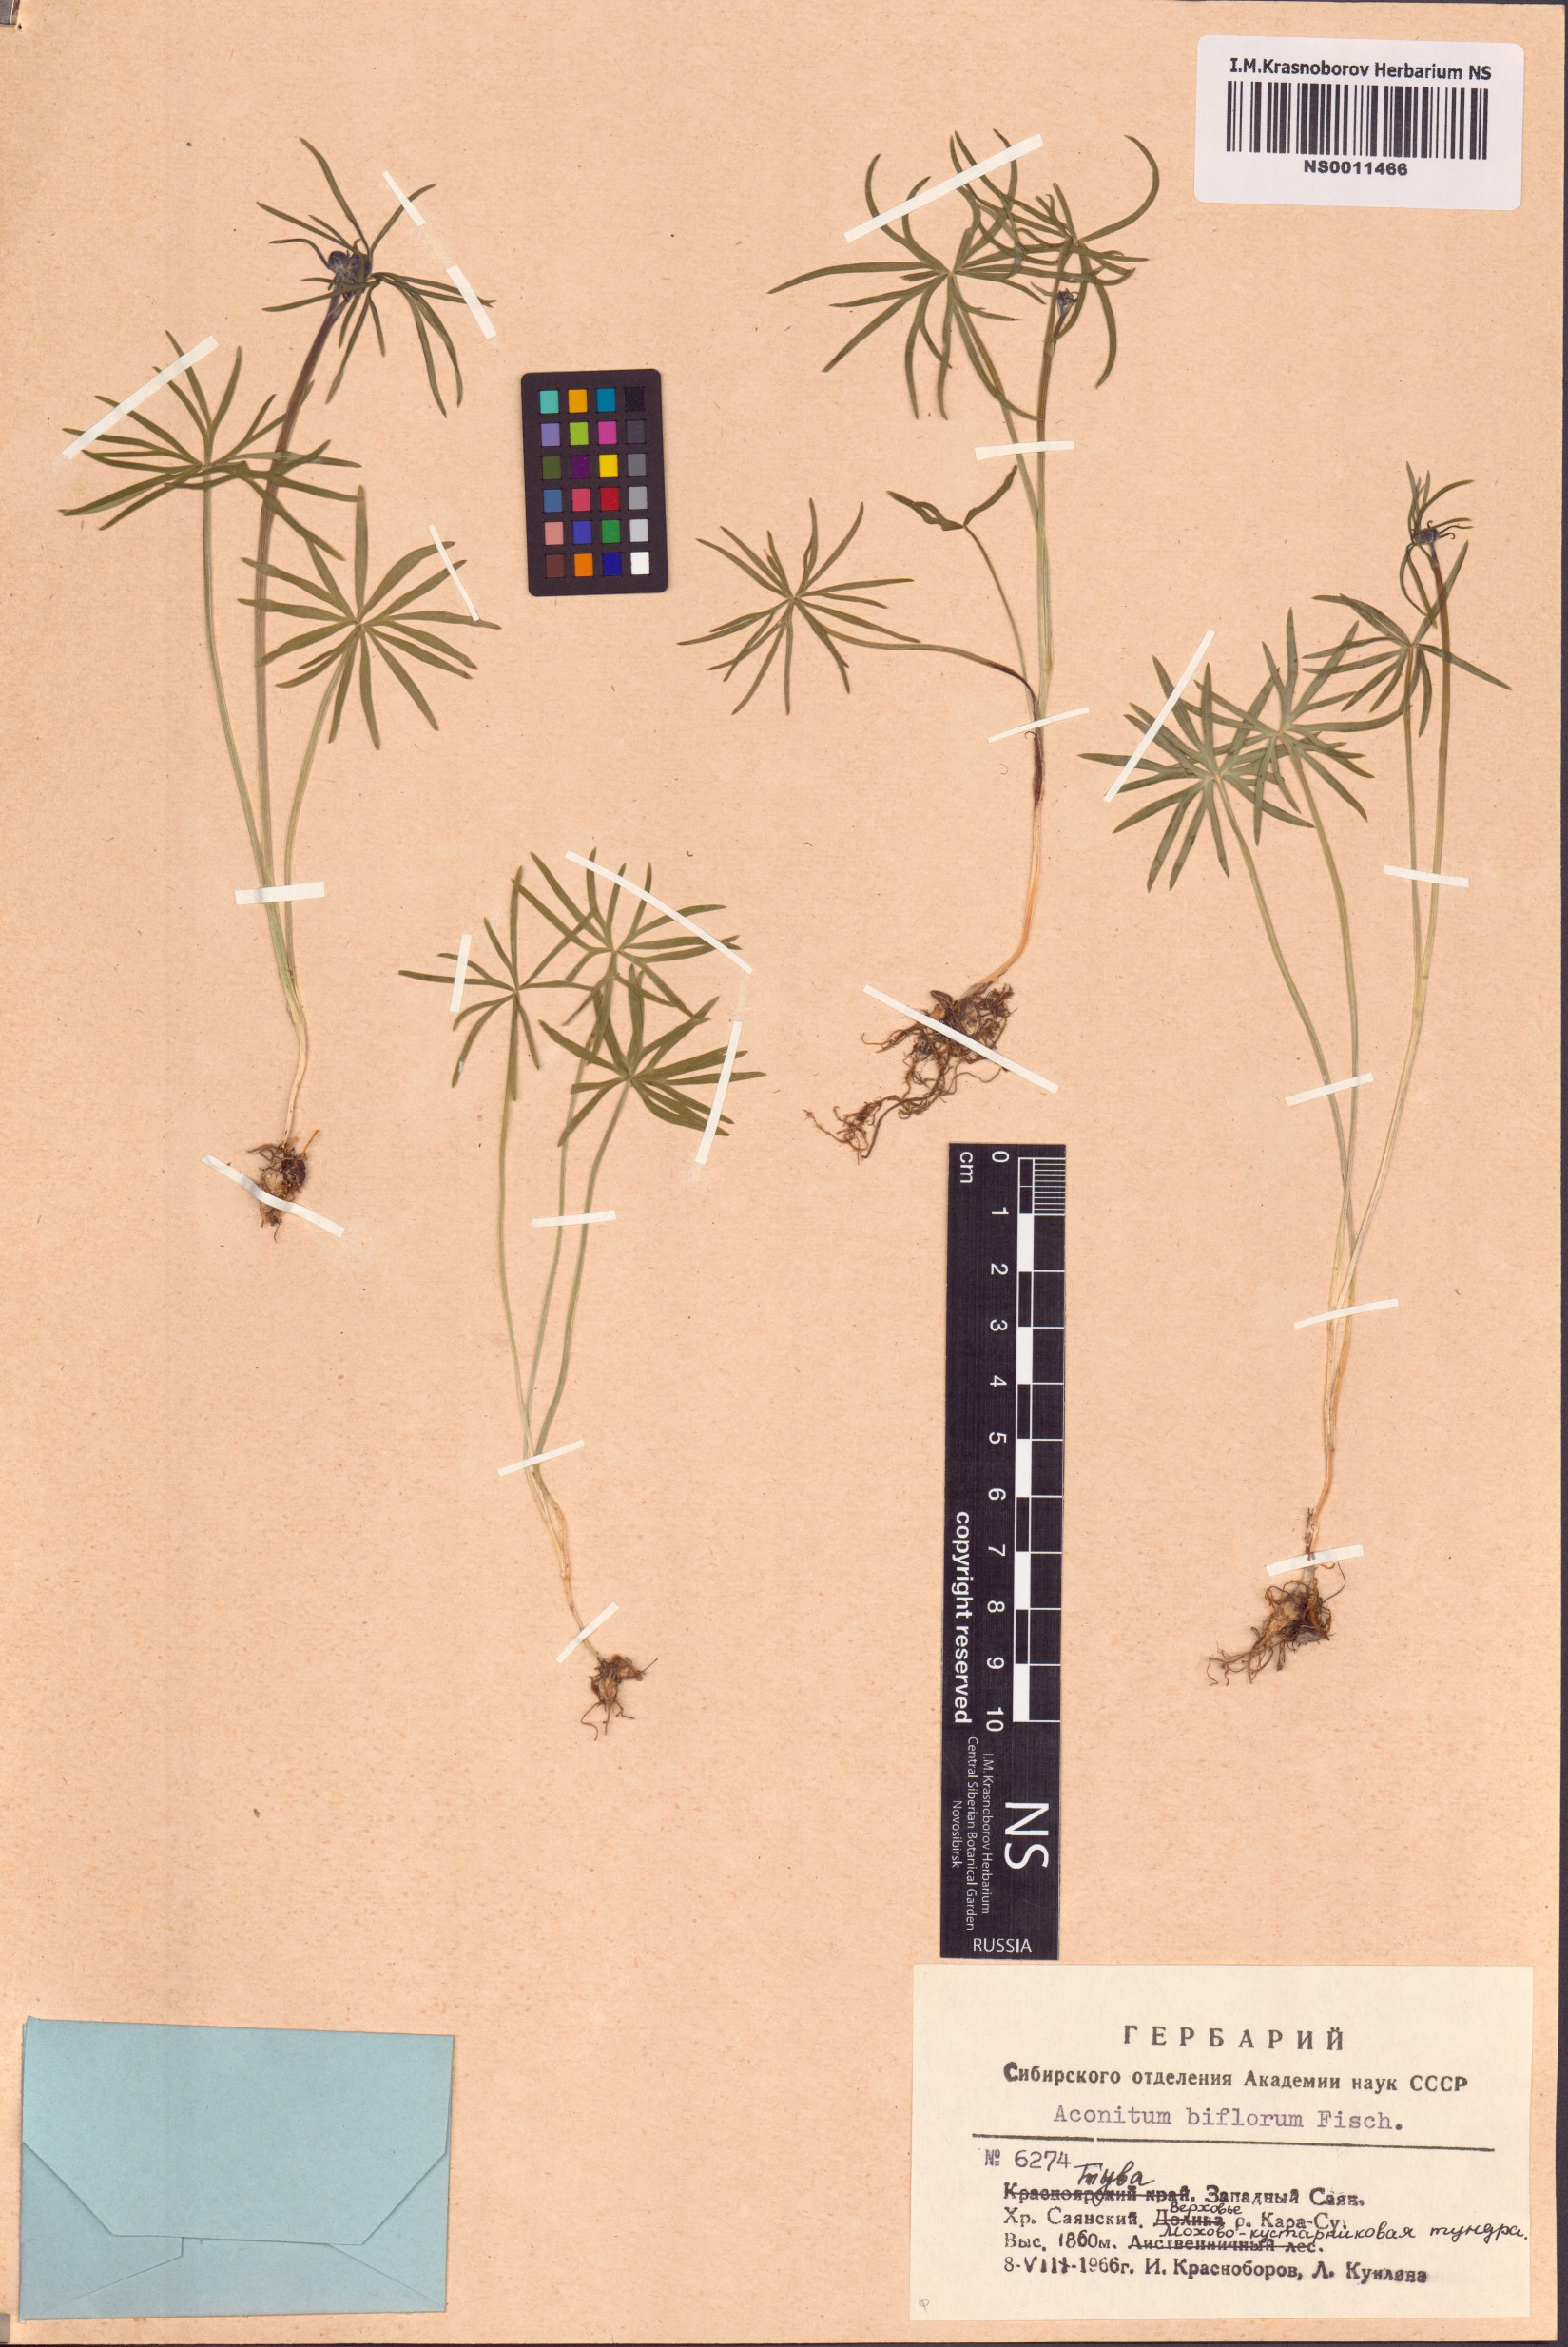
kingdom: Plantae
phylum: Tracheophyta
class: Magnoliopsida
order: Ranunculales
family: Ranunculaceae
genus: Aconitum
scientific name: Aconitum biflorum
